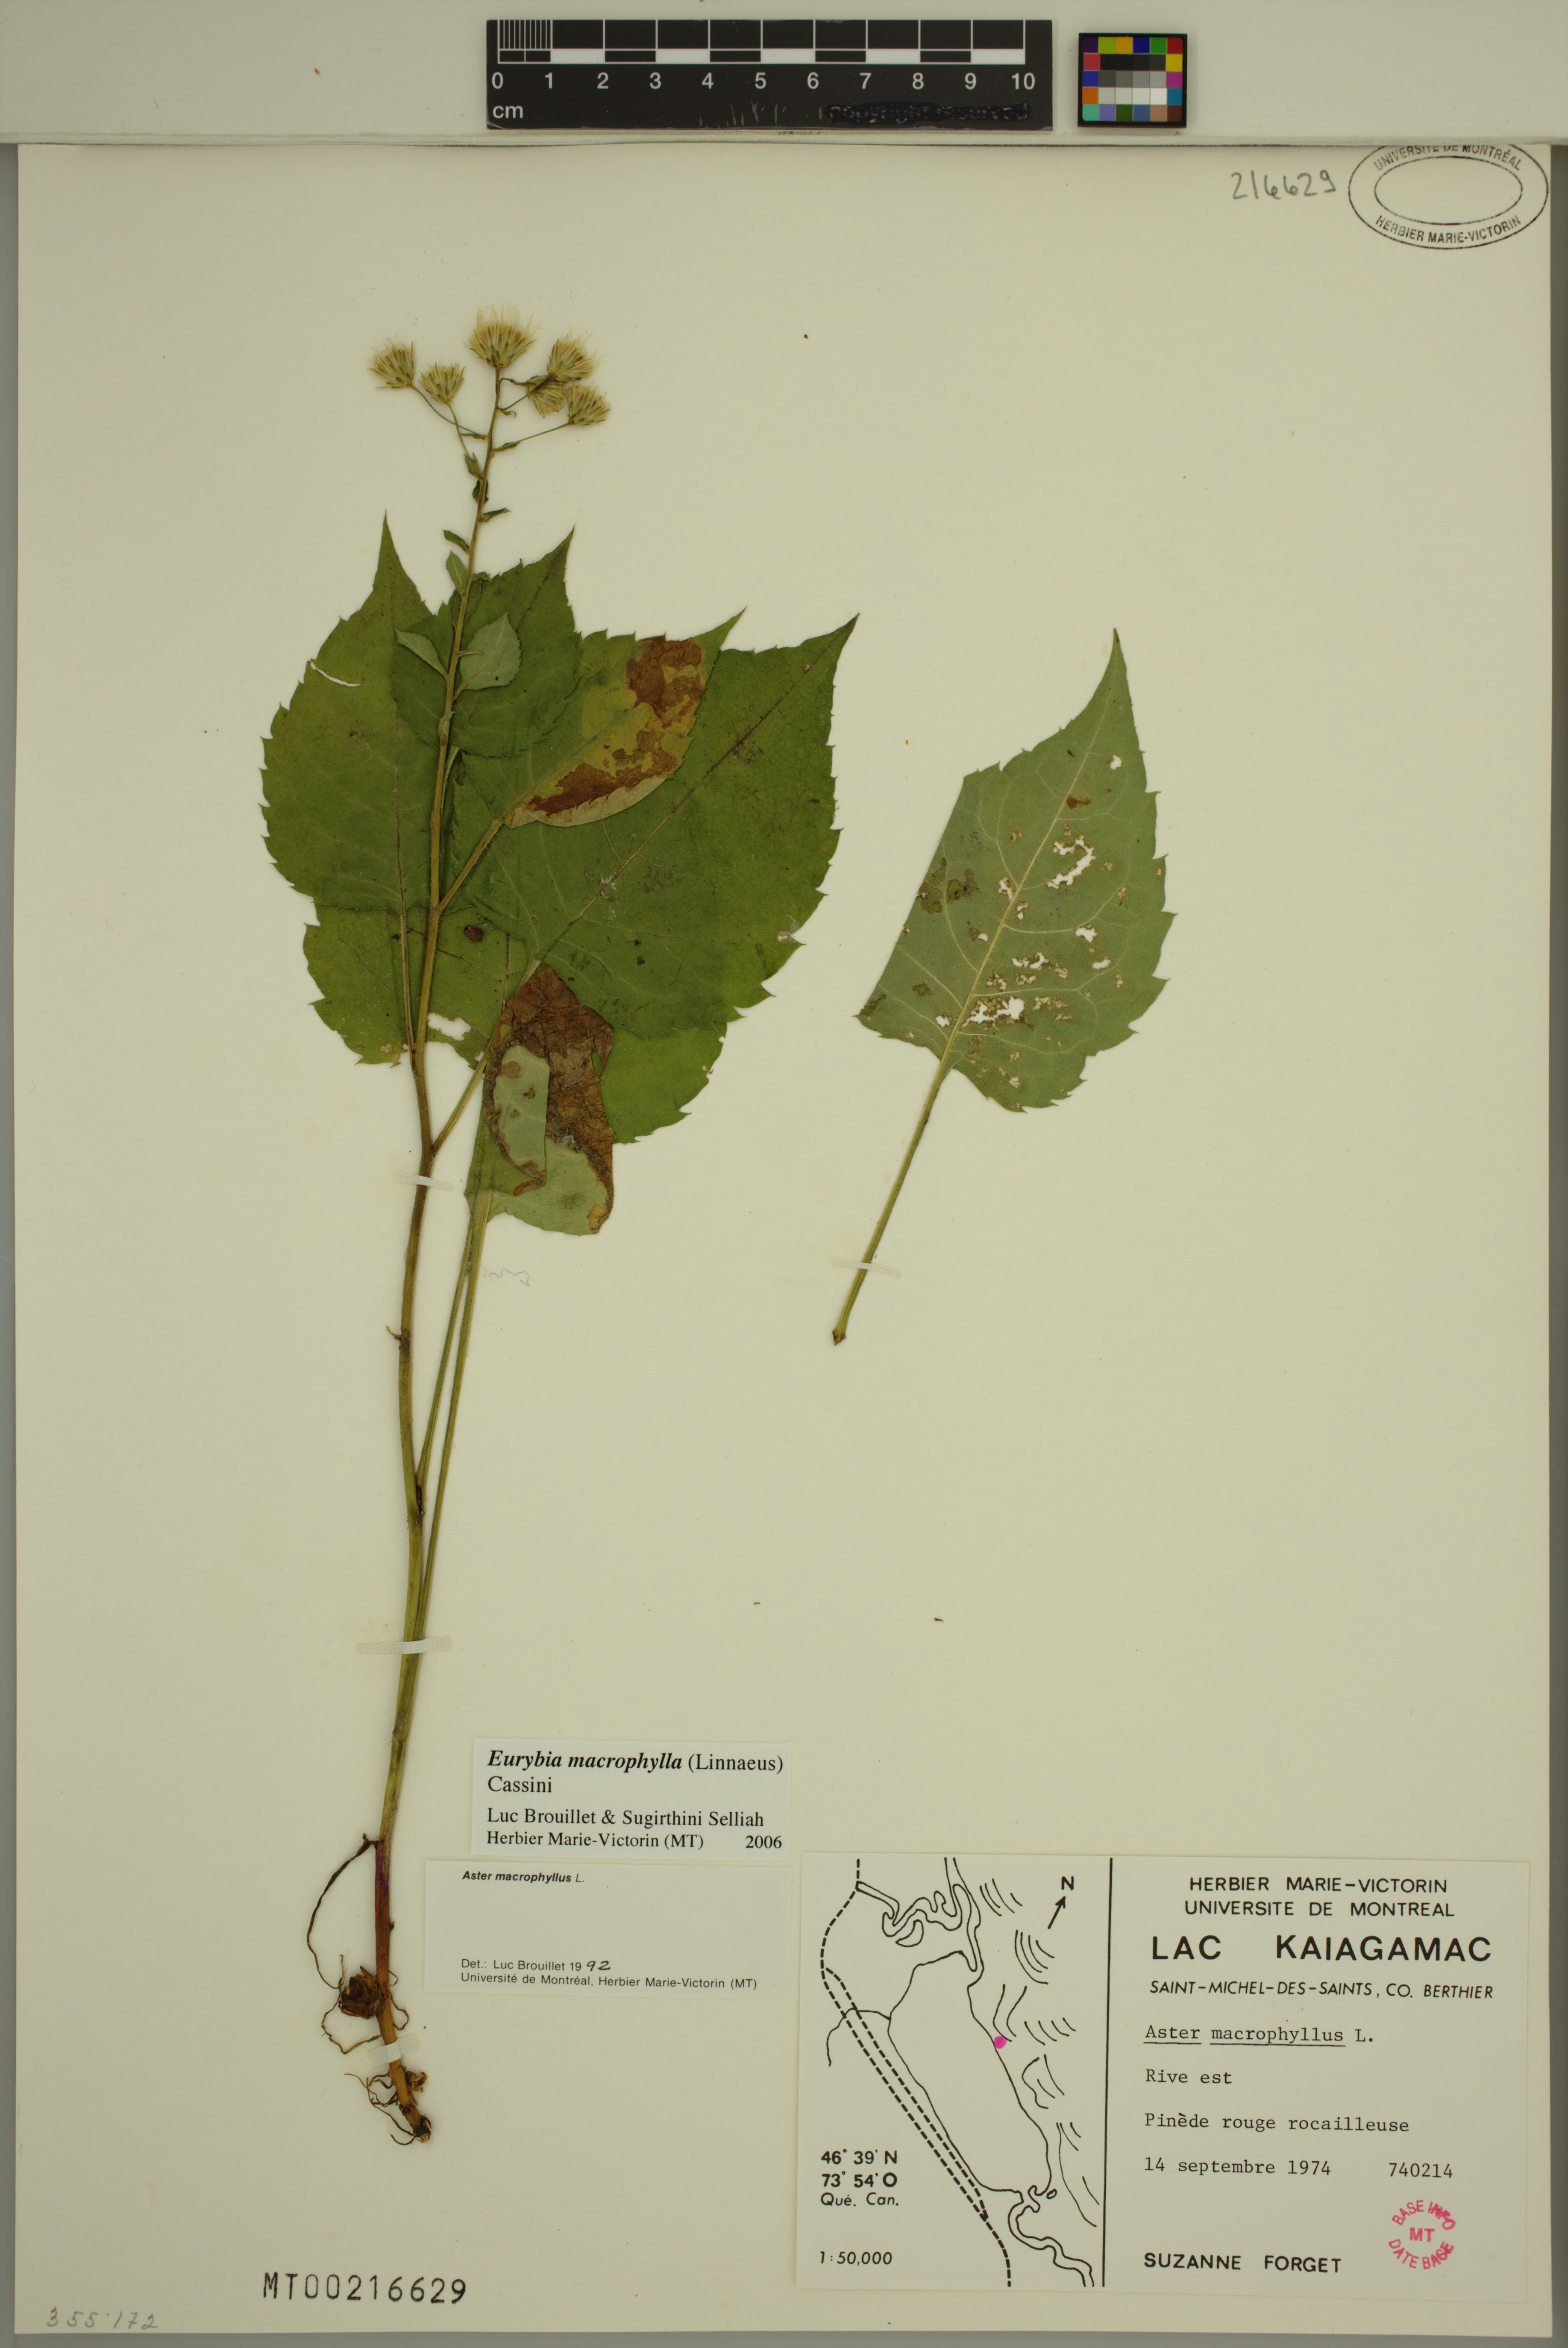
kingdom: Plantae
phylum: Tracheophyta
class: Magnoliopsida
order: Asterales
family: Asteraceae
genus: Eurybia
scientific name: Eurybia macrophylla
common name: Big-leaved aster
